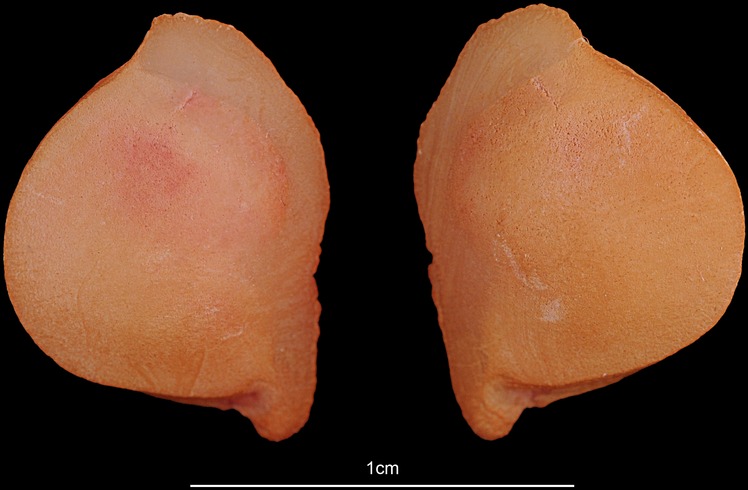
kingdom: Animalia
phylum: Chordata
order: Siluriformes
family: Ariidae
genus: Netuma
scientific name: Netuma bilineata
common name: Bronze catfish
